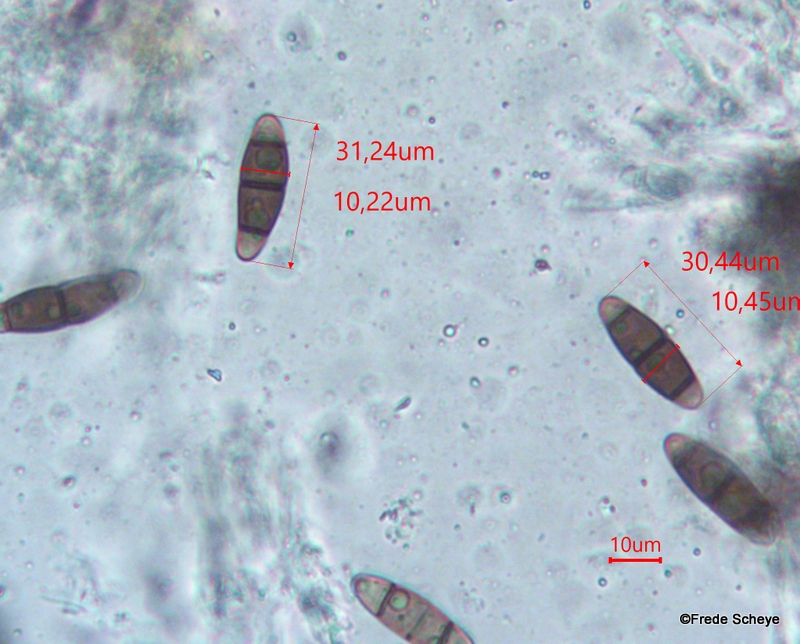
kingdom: Fungi
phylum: Ascomycota
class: Dothideomycetes
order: Hysteriales
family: Hysteriaceae
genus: Hysterium
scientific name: Hysterium pulicare
